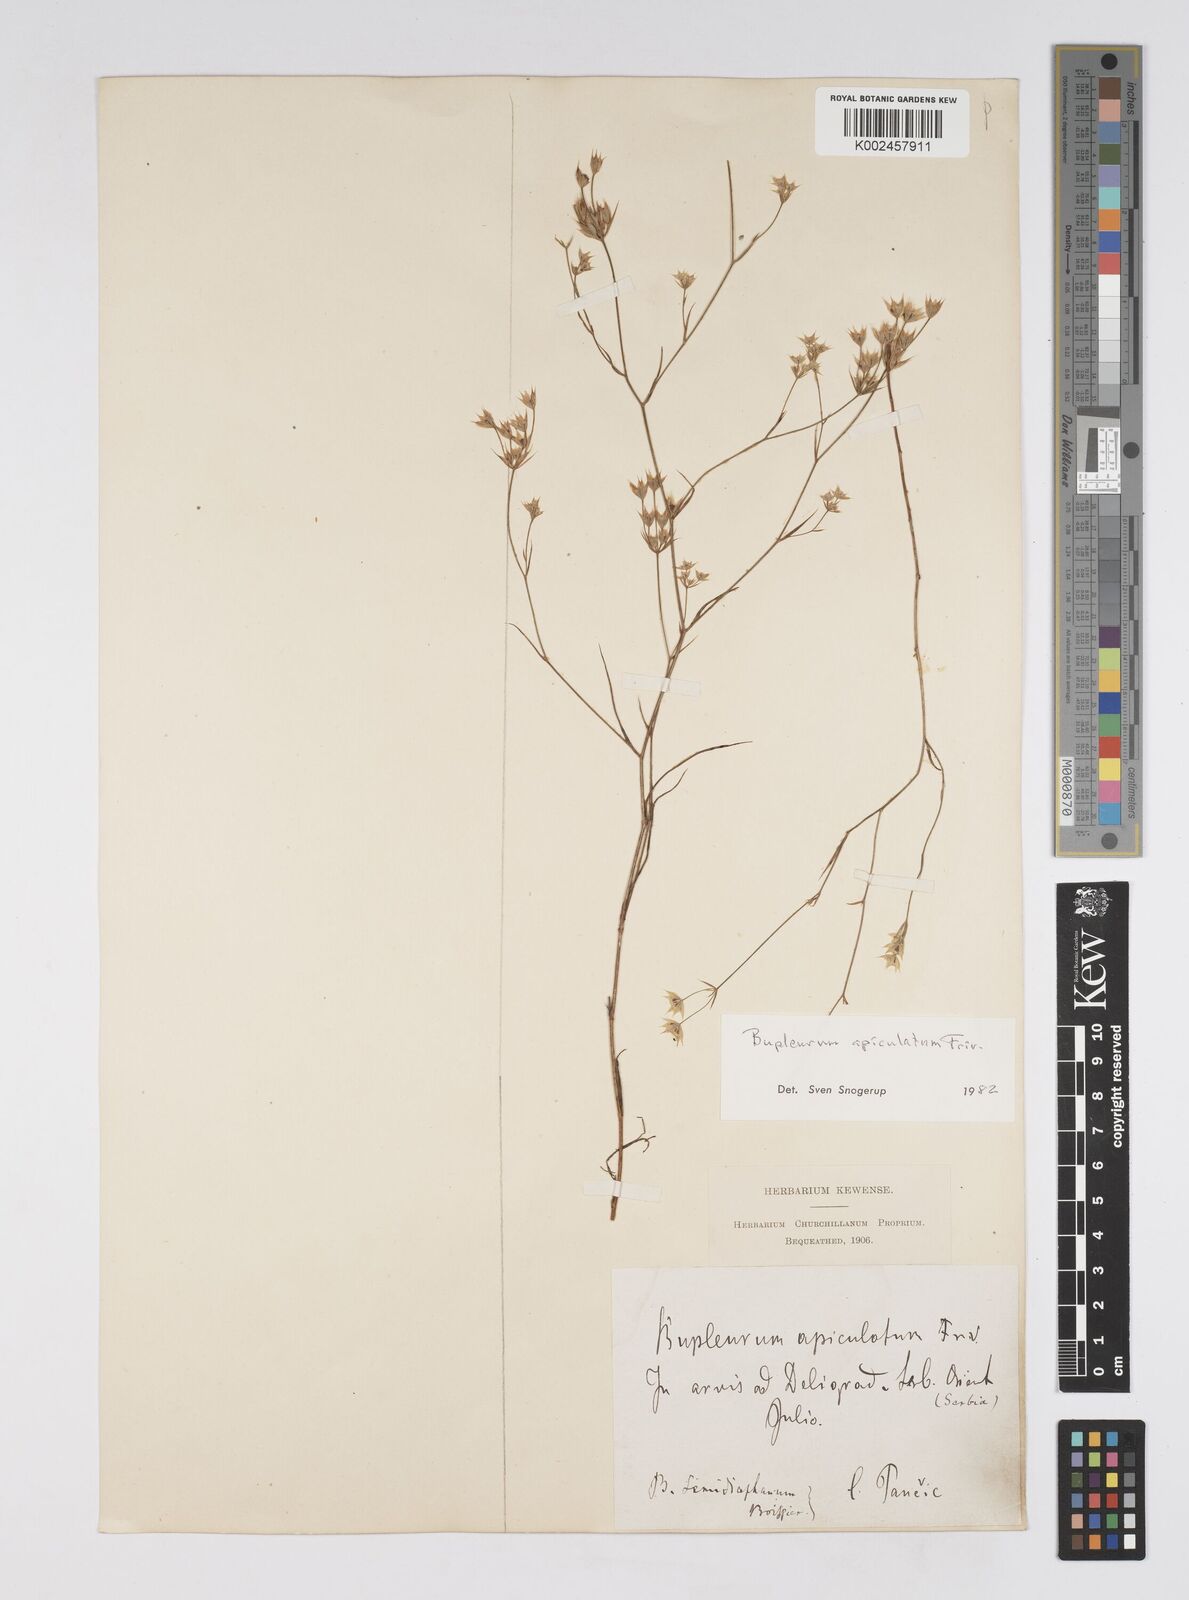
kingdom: Plantae
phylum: Tracheophyta
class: Magnoliopsida
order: Apiales
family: Apiaceae
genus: Bupleurum
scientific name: Bupleurum apiculatum
